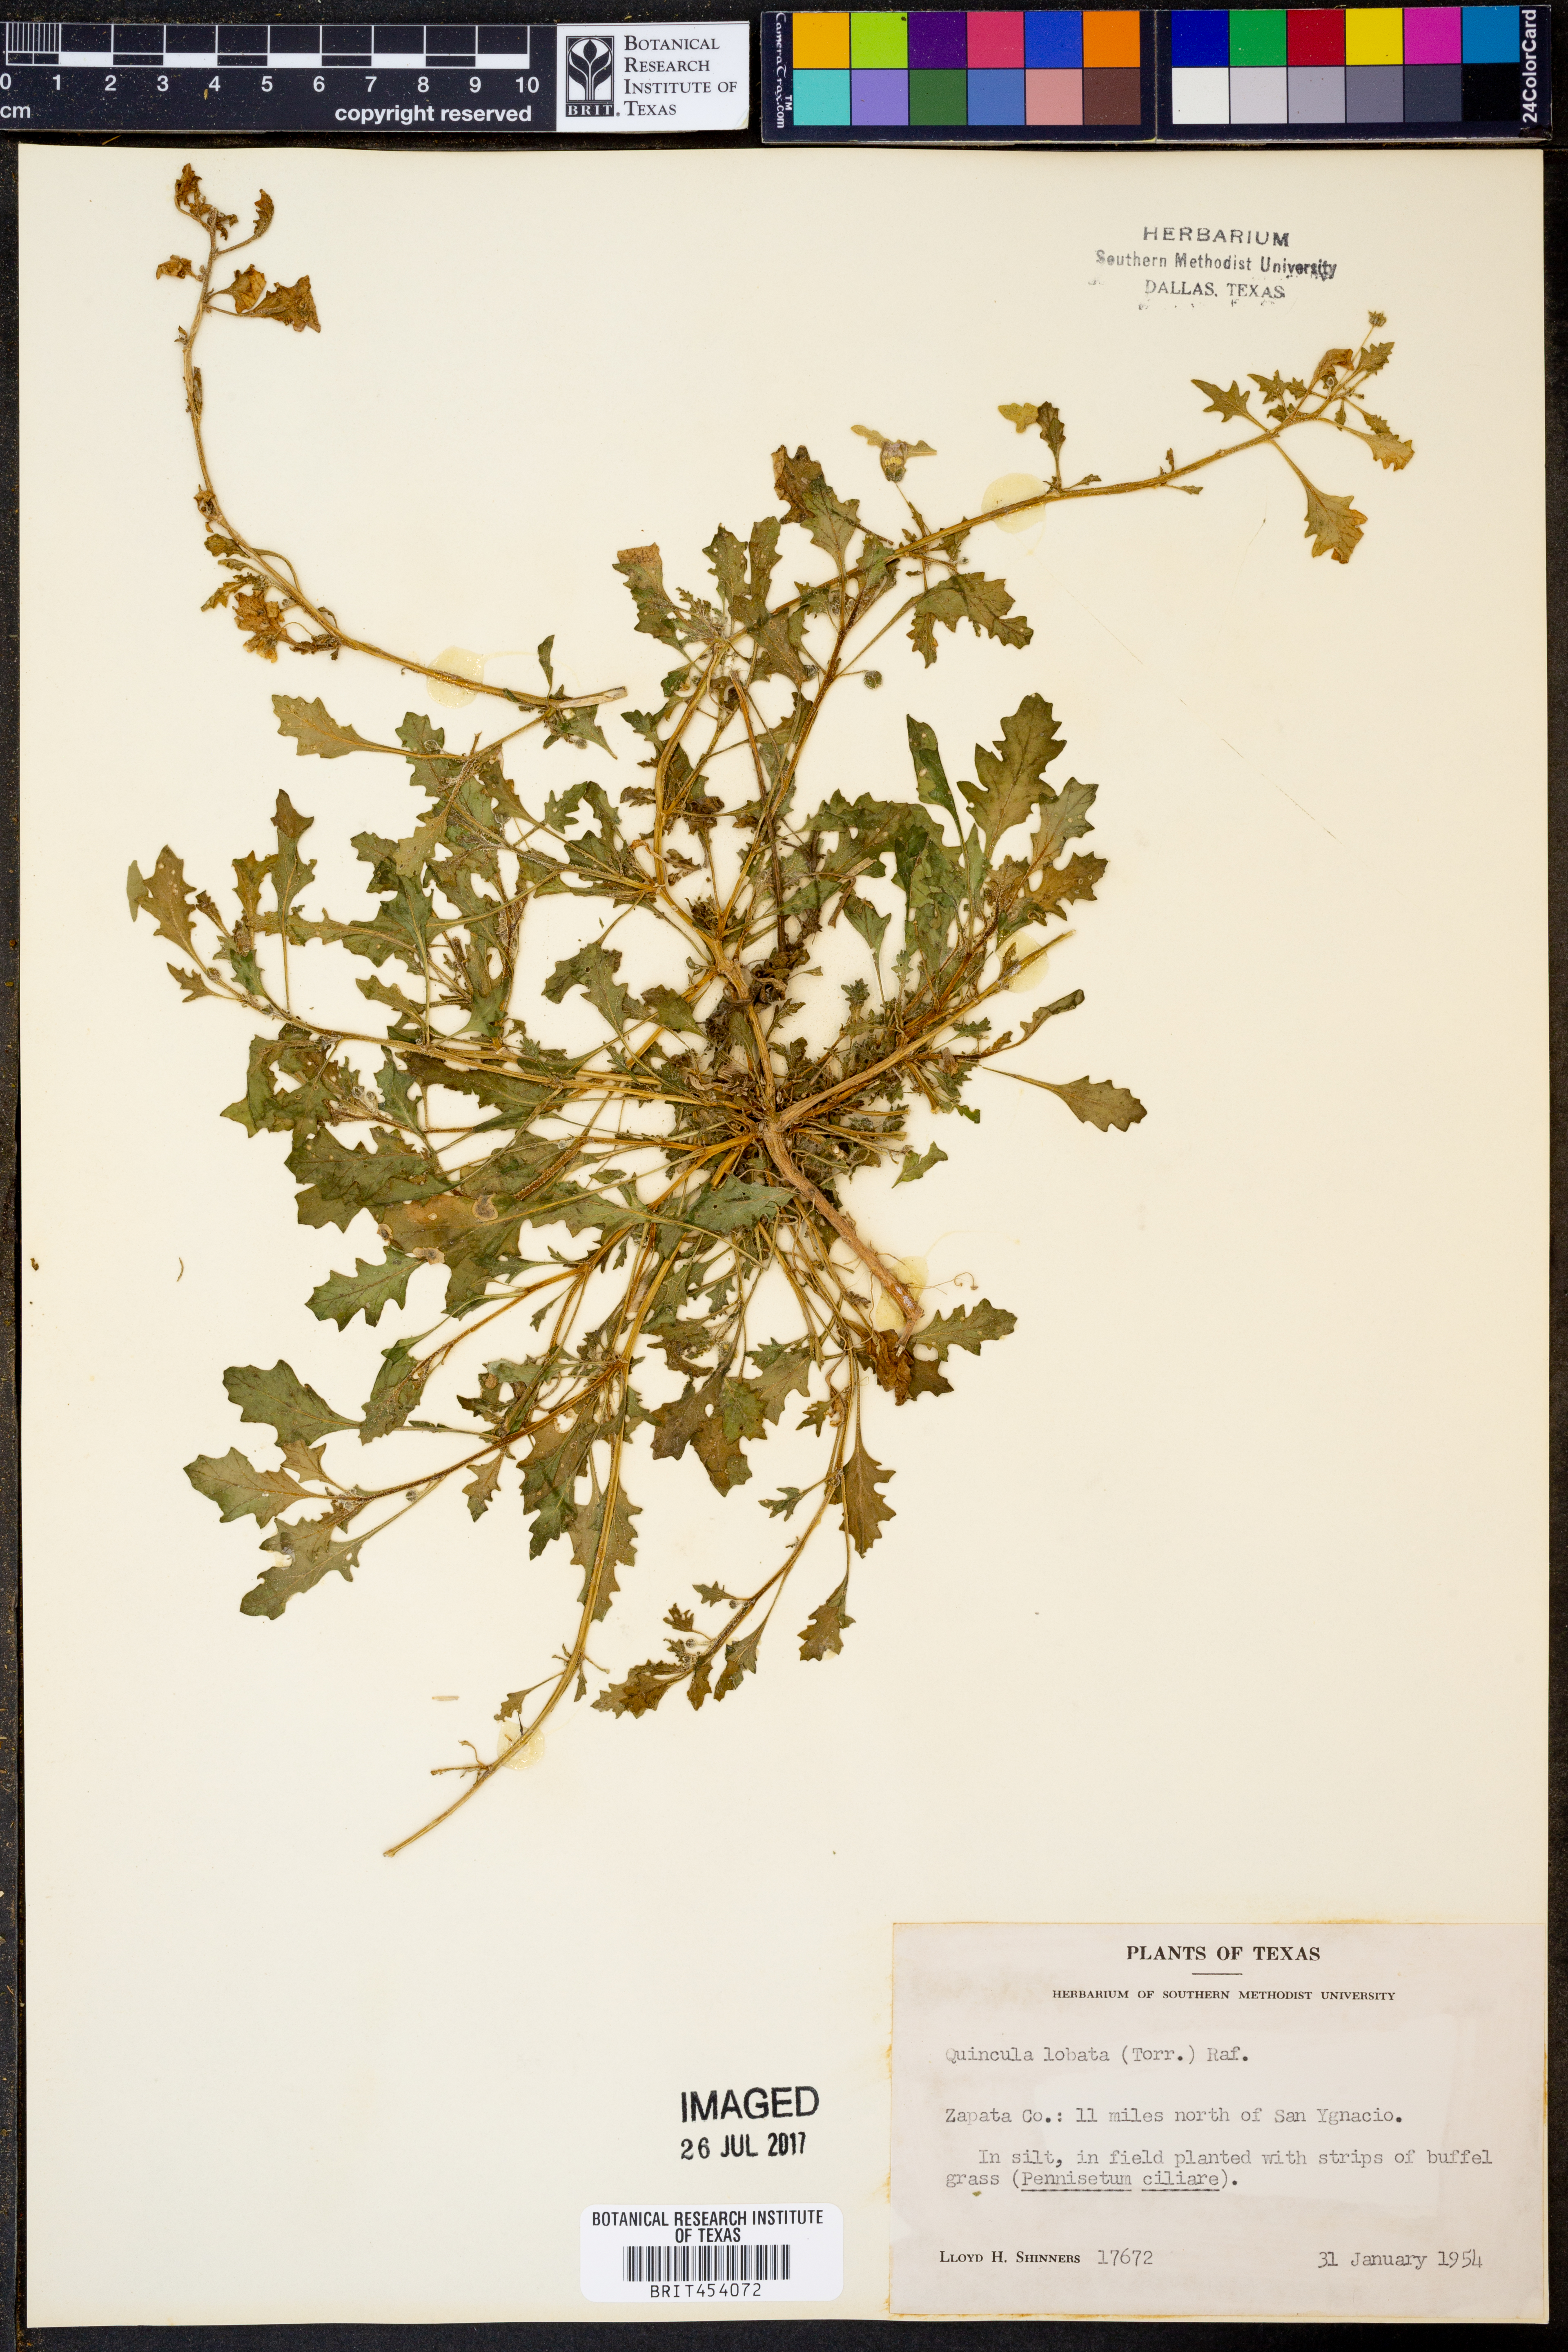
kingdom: Plantae
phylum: Tracheophyta
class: Magnoliopsida
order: Solanales
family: Solanaceae
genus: Quincula
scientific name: Quincula lobata
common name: Purple-ground-cherry
